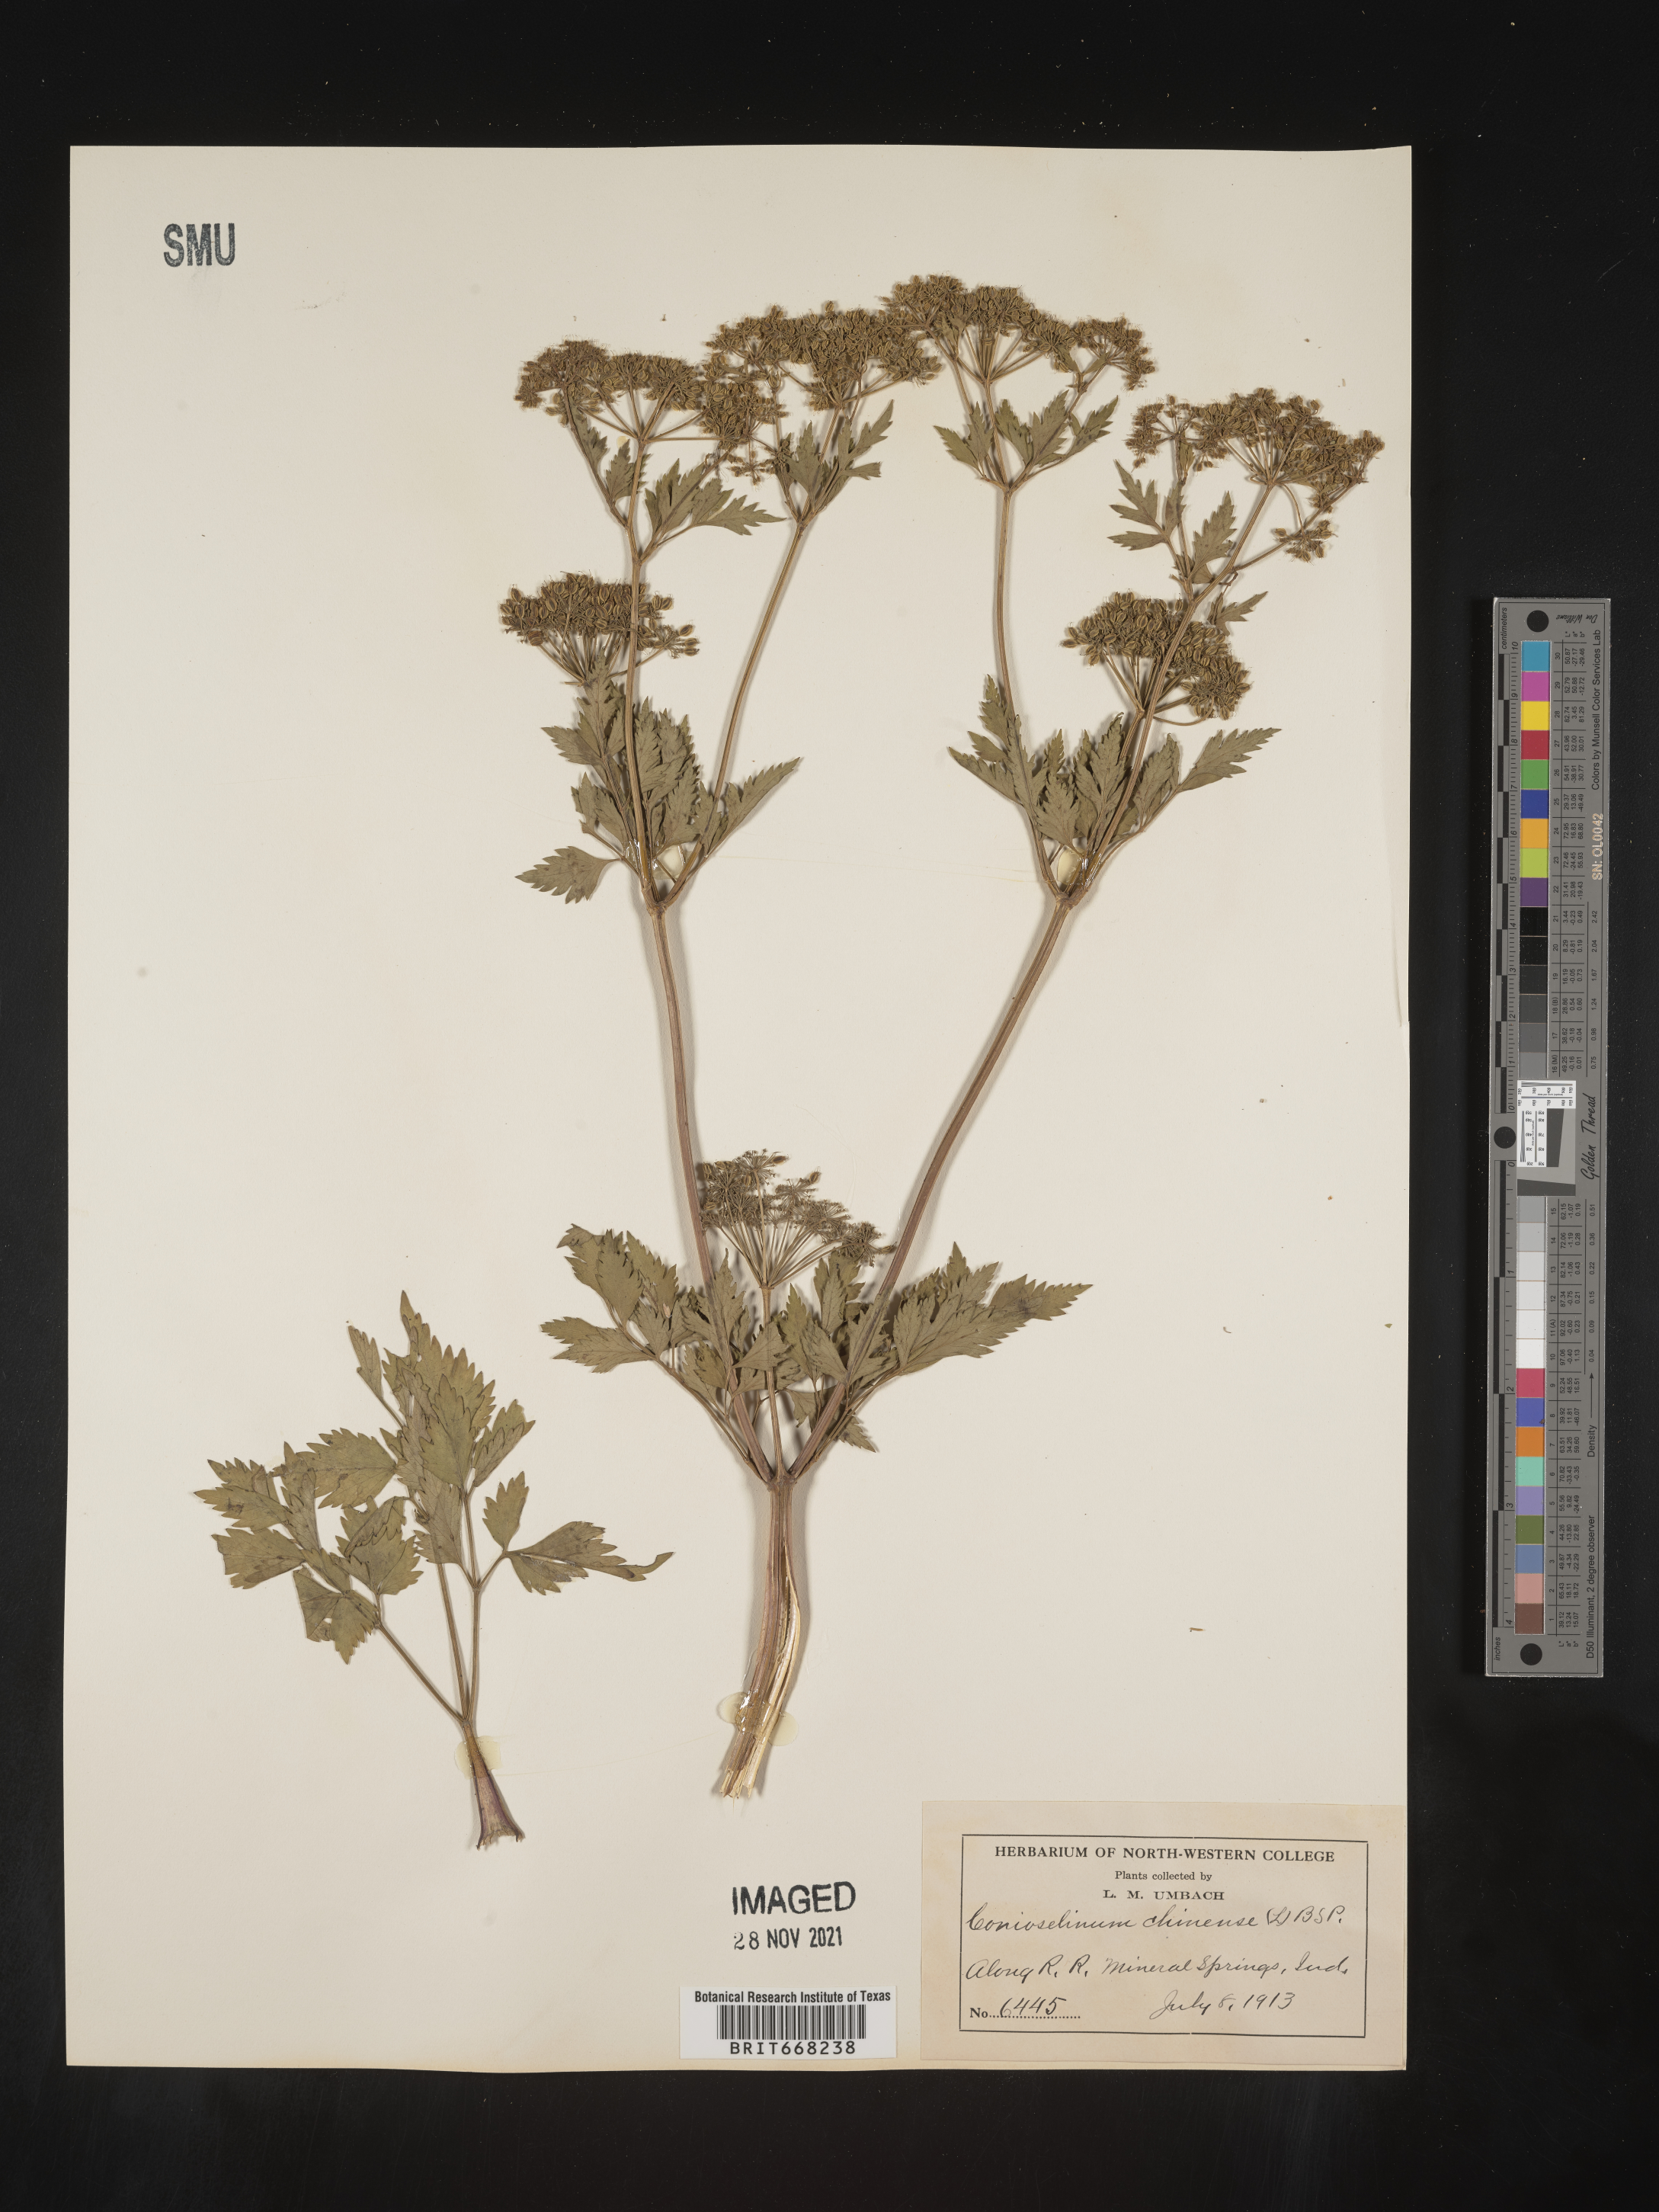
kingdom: Plantae
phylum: Tracheophyta
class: Magnoliopsida
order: Apiales
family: Apiaceae
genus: Conioselinum
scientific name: Conioselinum
